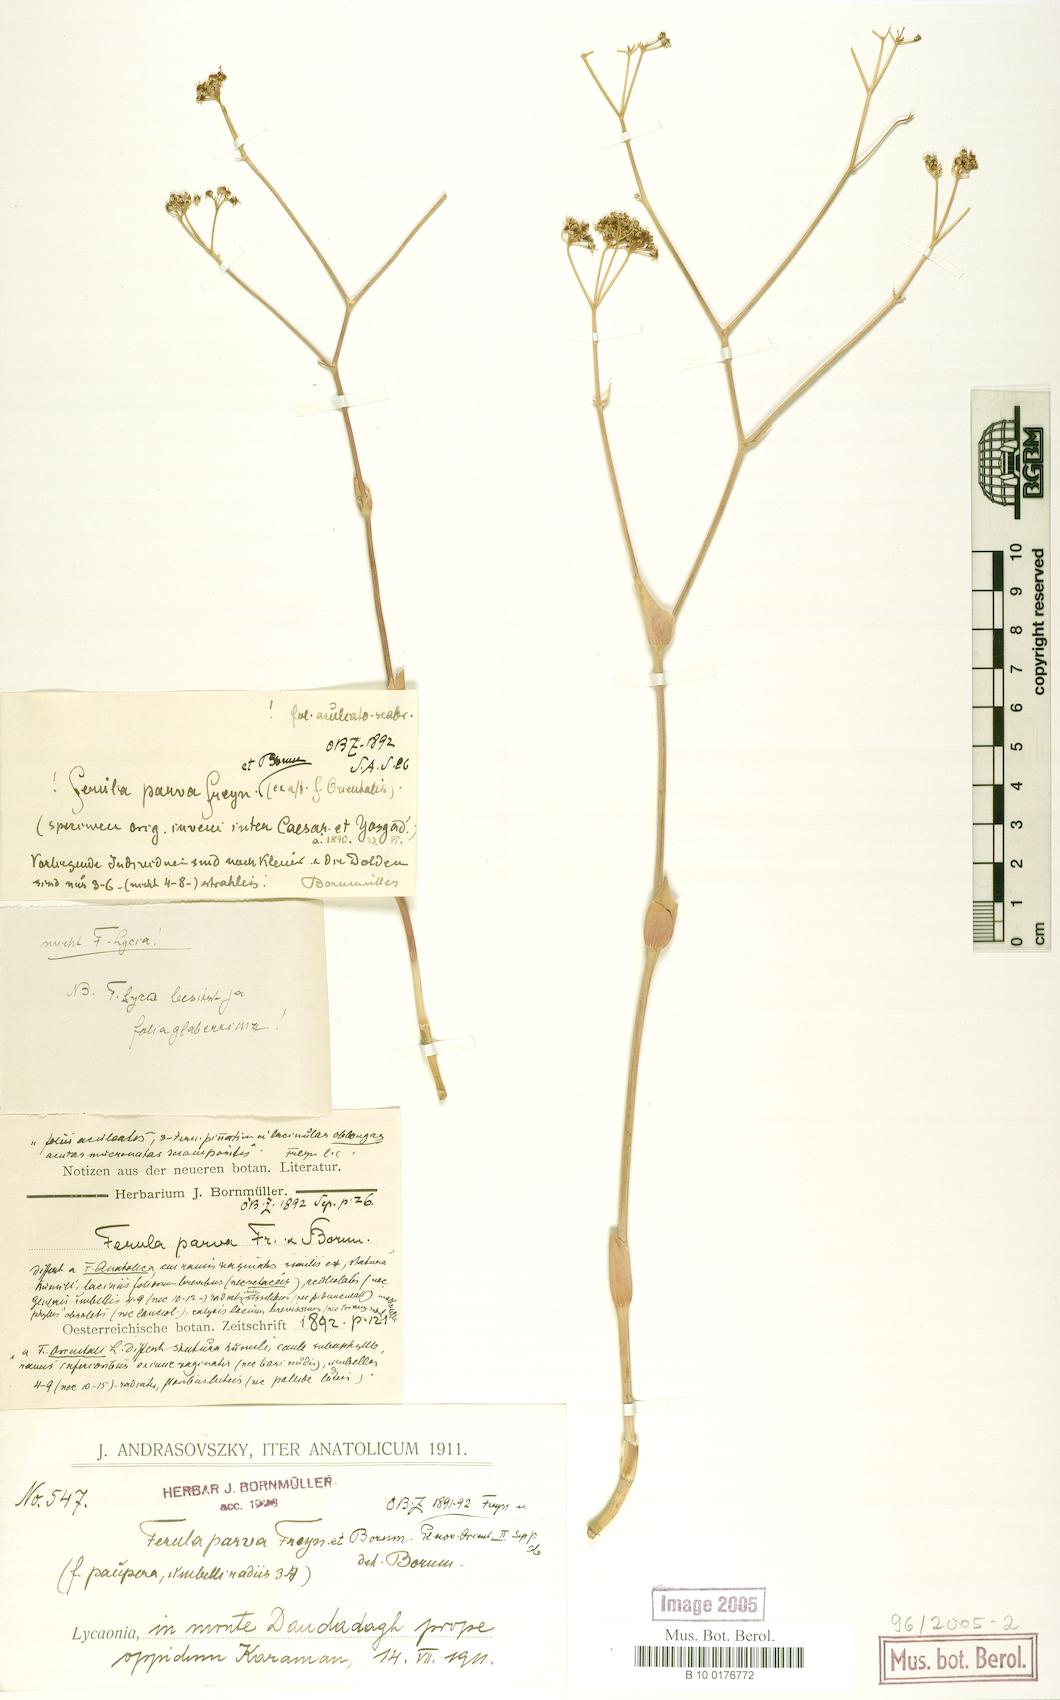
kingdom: Plantae
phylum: Tracheophyta
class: Magnoliopsida
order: Apiales
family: Apiaceae
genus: Ferula
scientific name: Ferula parva
